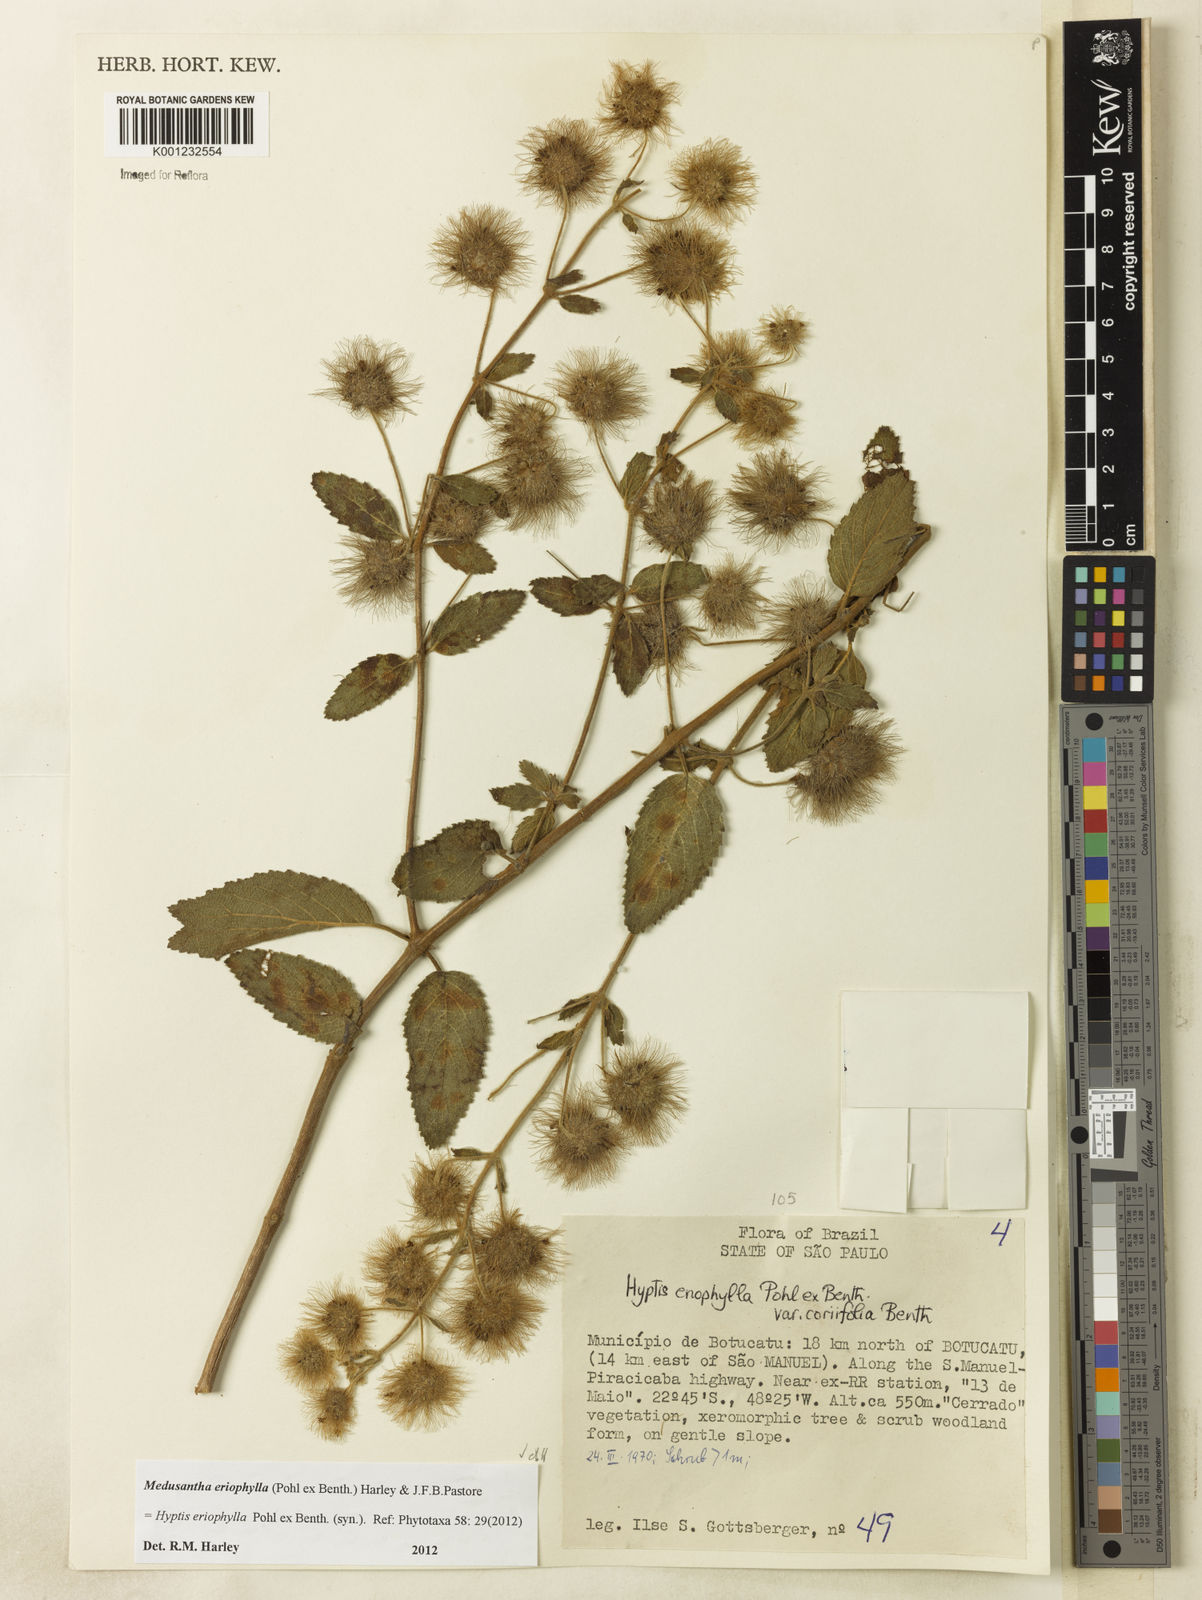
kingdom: Plantae
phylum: Tracheophyta
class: Magnoliopsida
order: Lamiales
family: Lamiaceae
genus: Medusantha
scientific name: Medusantha eriophylla
